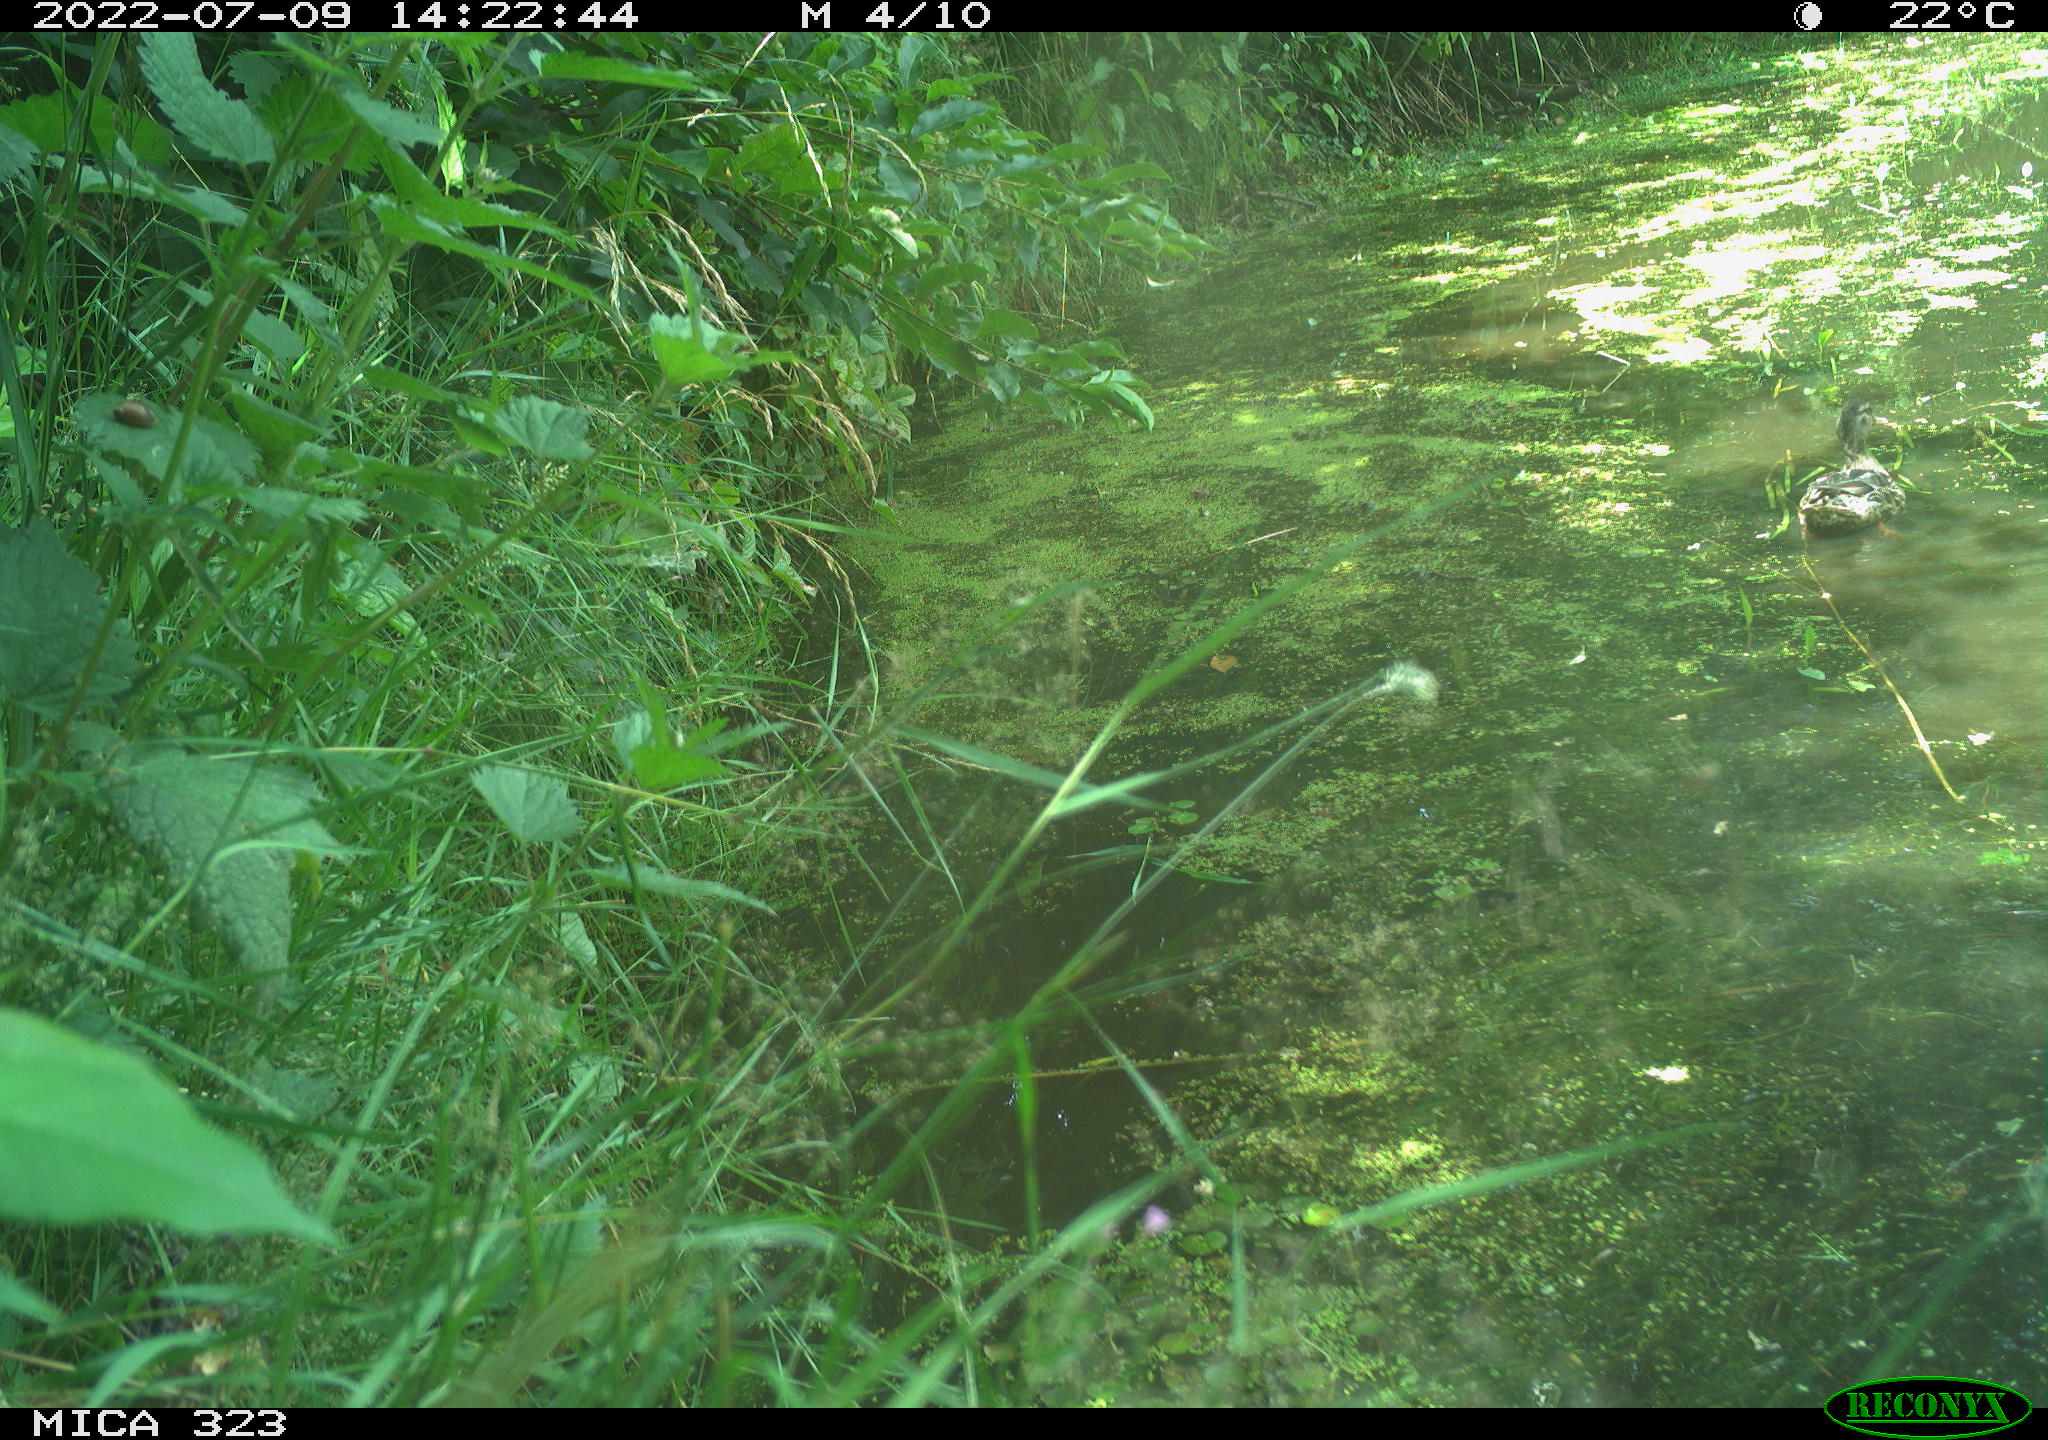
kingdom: Animalia
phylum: Chordata
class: Aves
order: Anseriformes
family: Anatidae
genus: Anas
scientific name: Anas platyrhynchos
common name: Mallard
